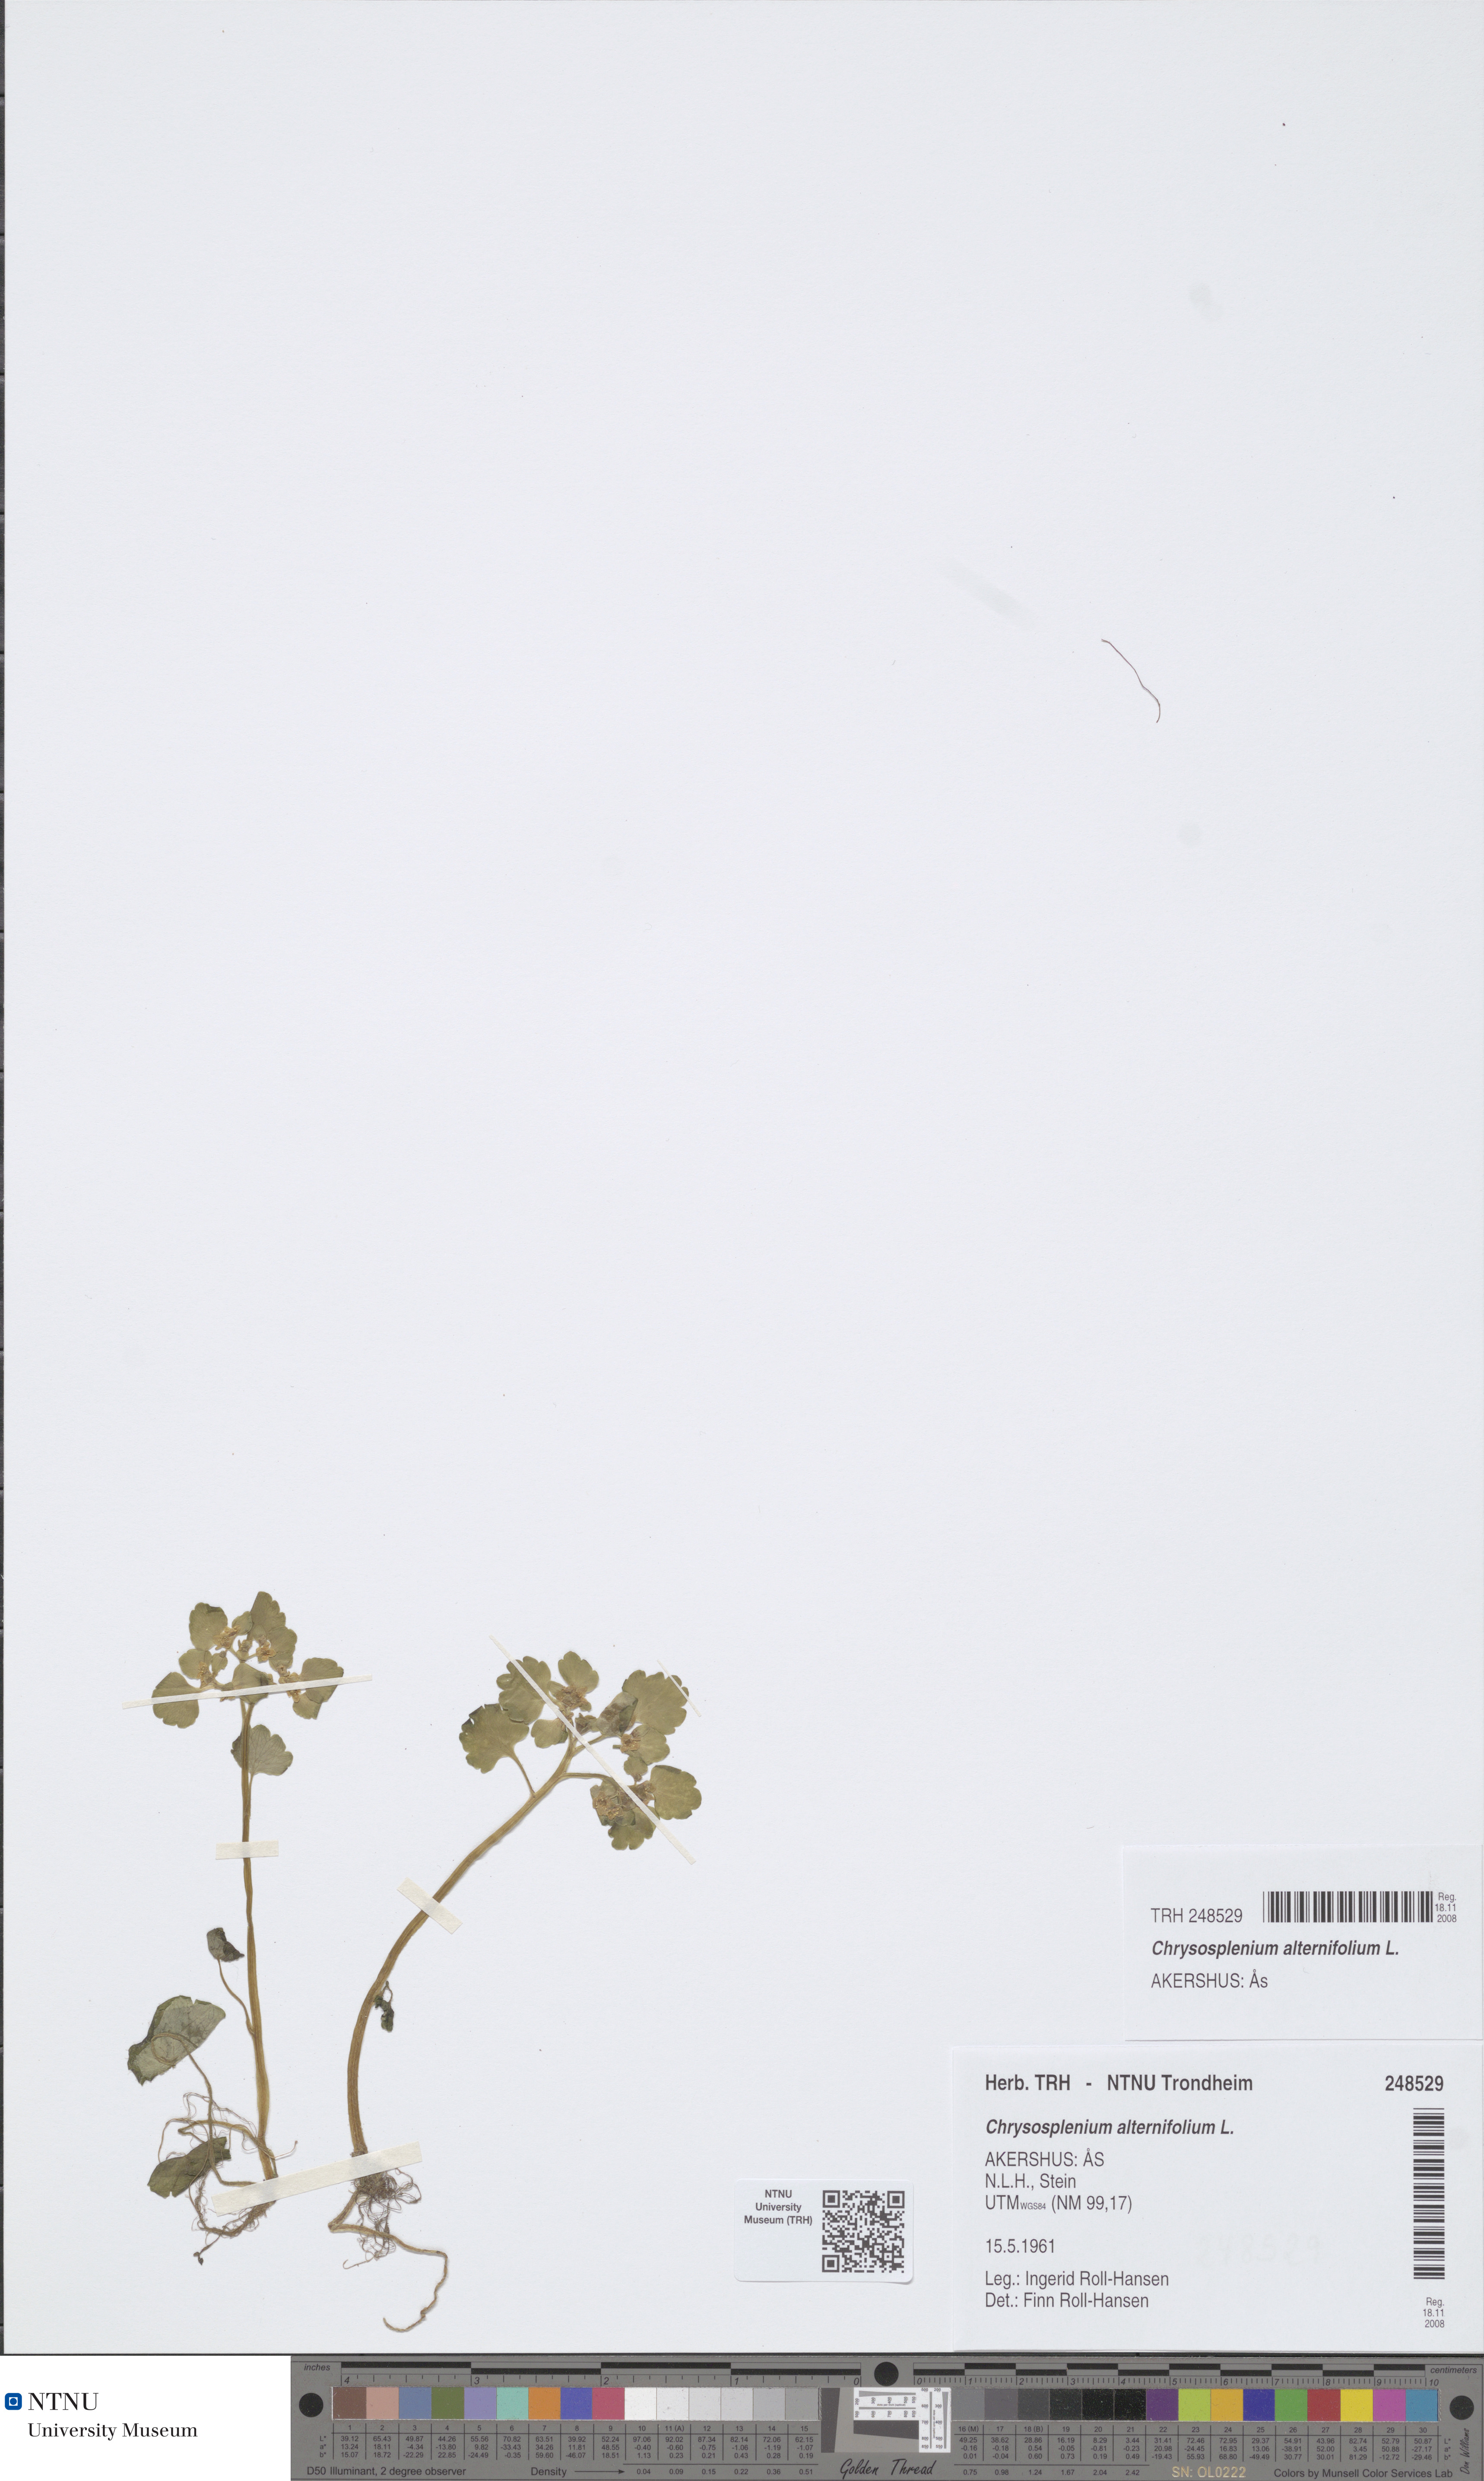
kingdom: Plantae
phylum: Tracheophyta
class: Magnoliopsida
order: Saxifragales
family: Saxifragaceae
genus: Chrysosplenium
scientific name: Chrysosplenium alternifolium
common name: Alternate-leaved golden-saxifrage
